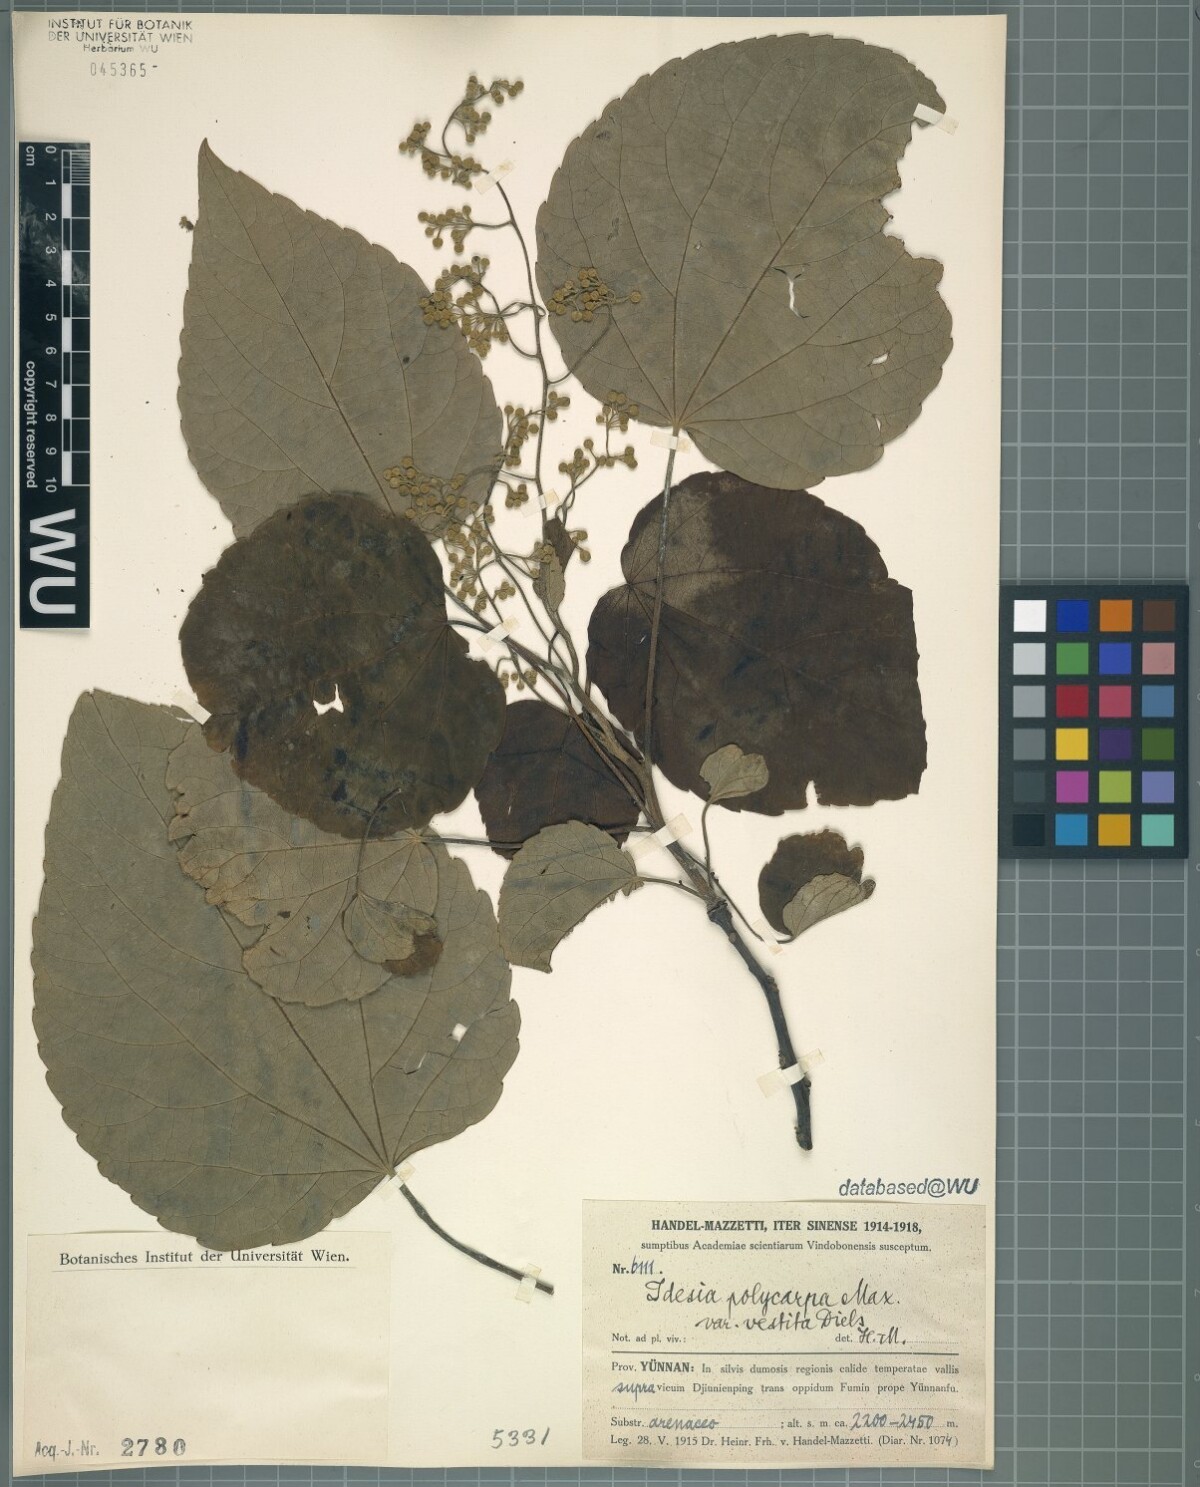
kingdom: Plantae
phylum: Tracheophyta
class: Magnoliopsida
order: Malpighiales
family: Salicaceae
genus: Idesia
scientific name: Idesia polycarpa
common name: Idesia tree
